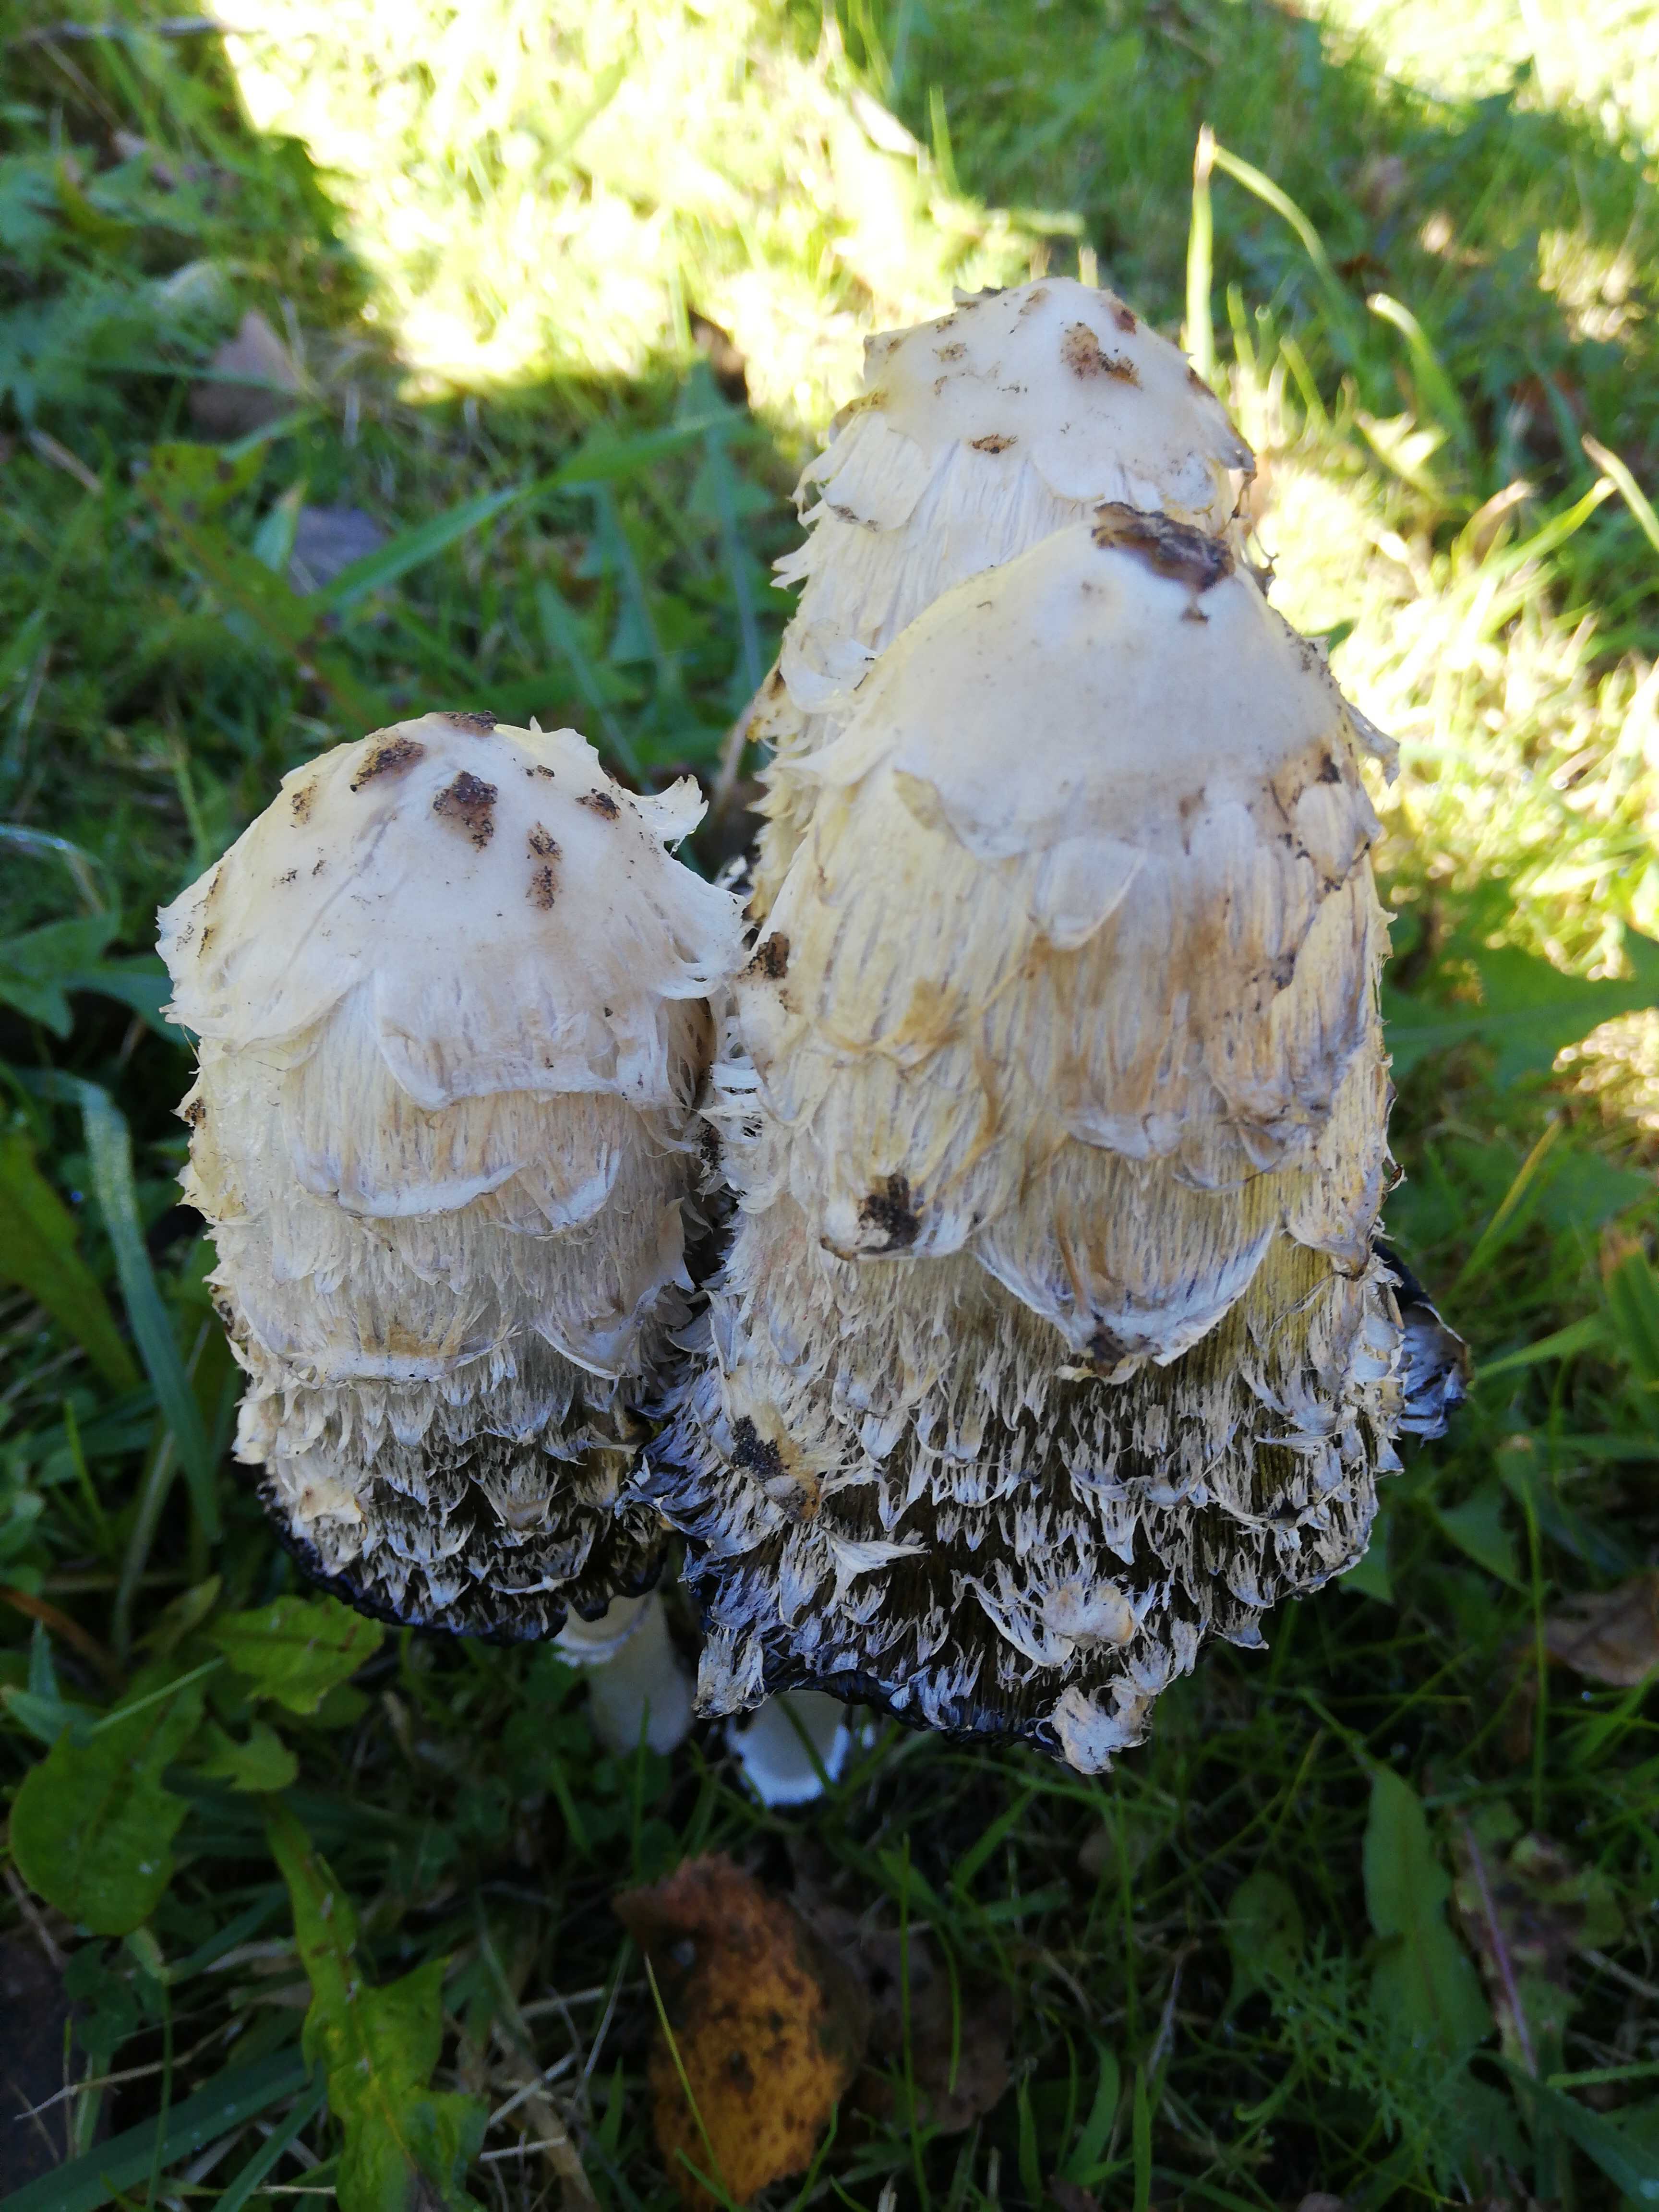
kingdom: Fungi
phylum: Basidiomycota
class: Agaricomycetes
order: Agaricales
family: Agaricaceae
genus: Coprinus
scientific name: Coprinus comatus
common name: stor parykhat
